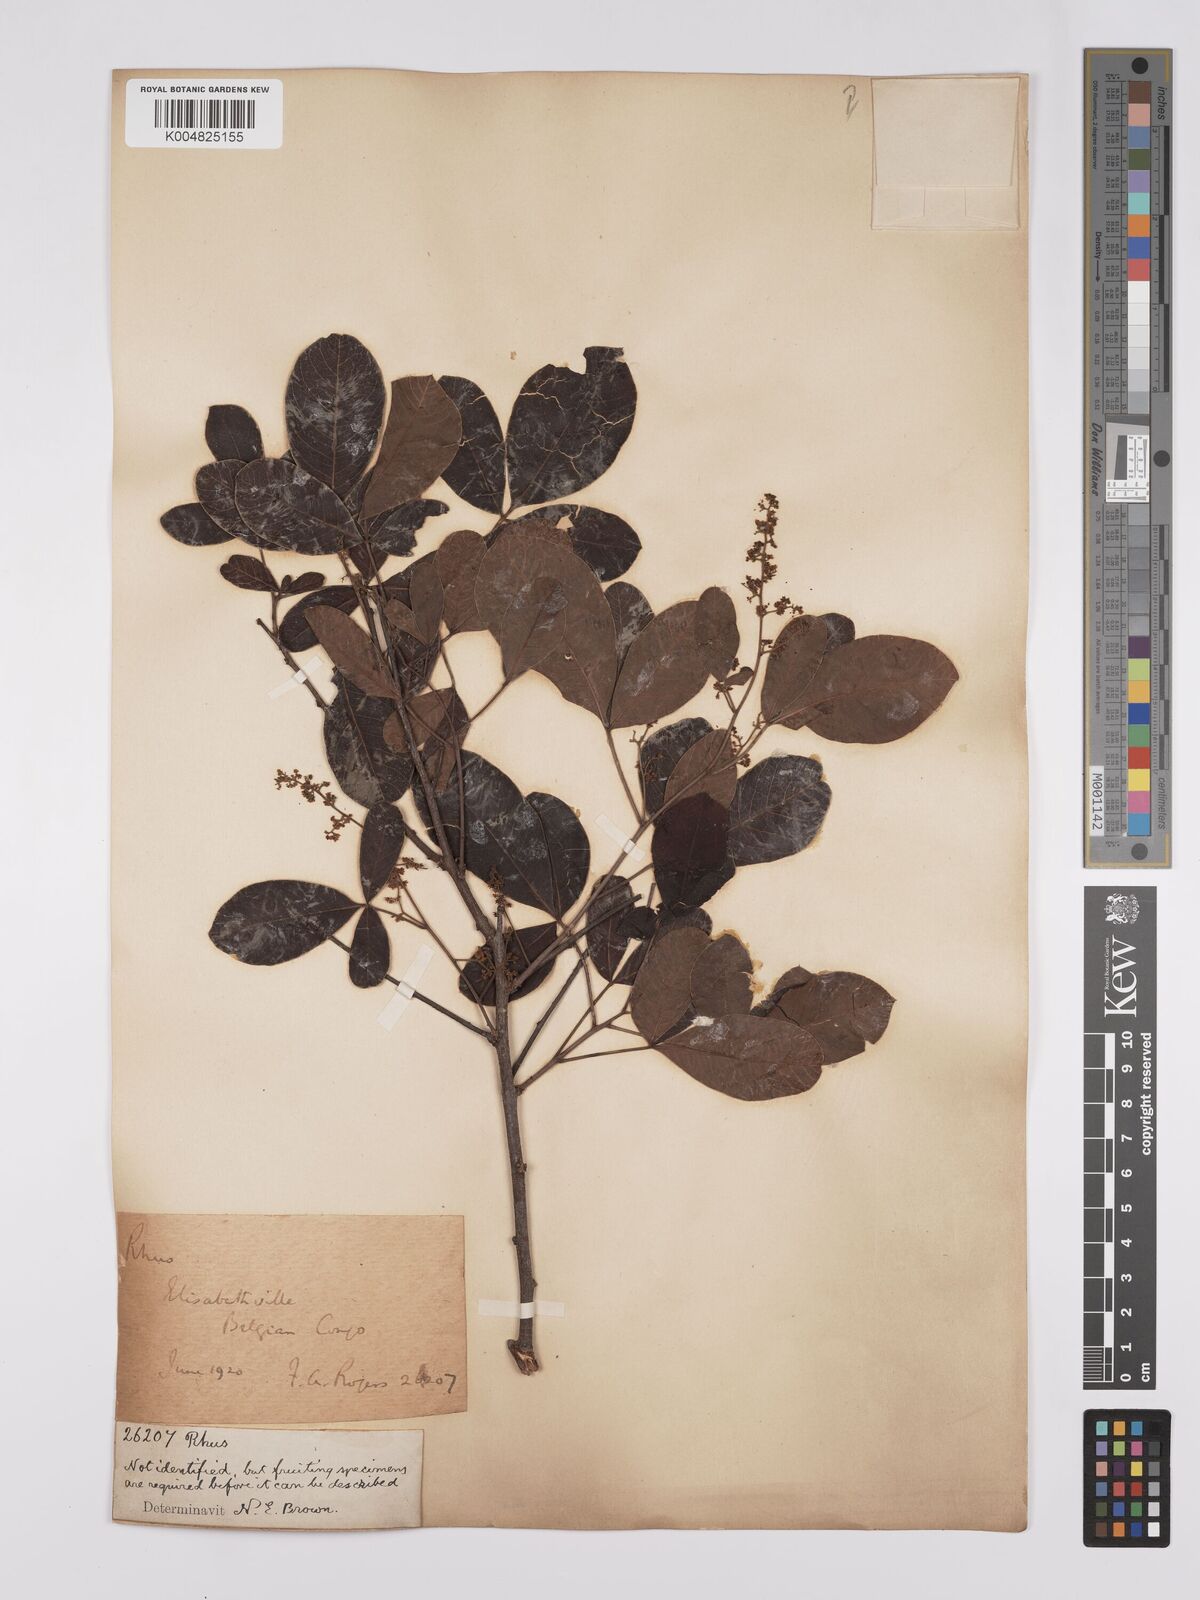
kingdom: Plantae
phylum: Tracheophyta
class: Magnoliopsida
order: Sapindales
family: Anacardiaceae
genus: Searsia
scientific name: Searsia longipes
